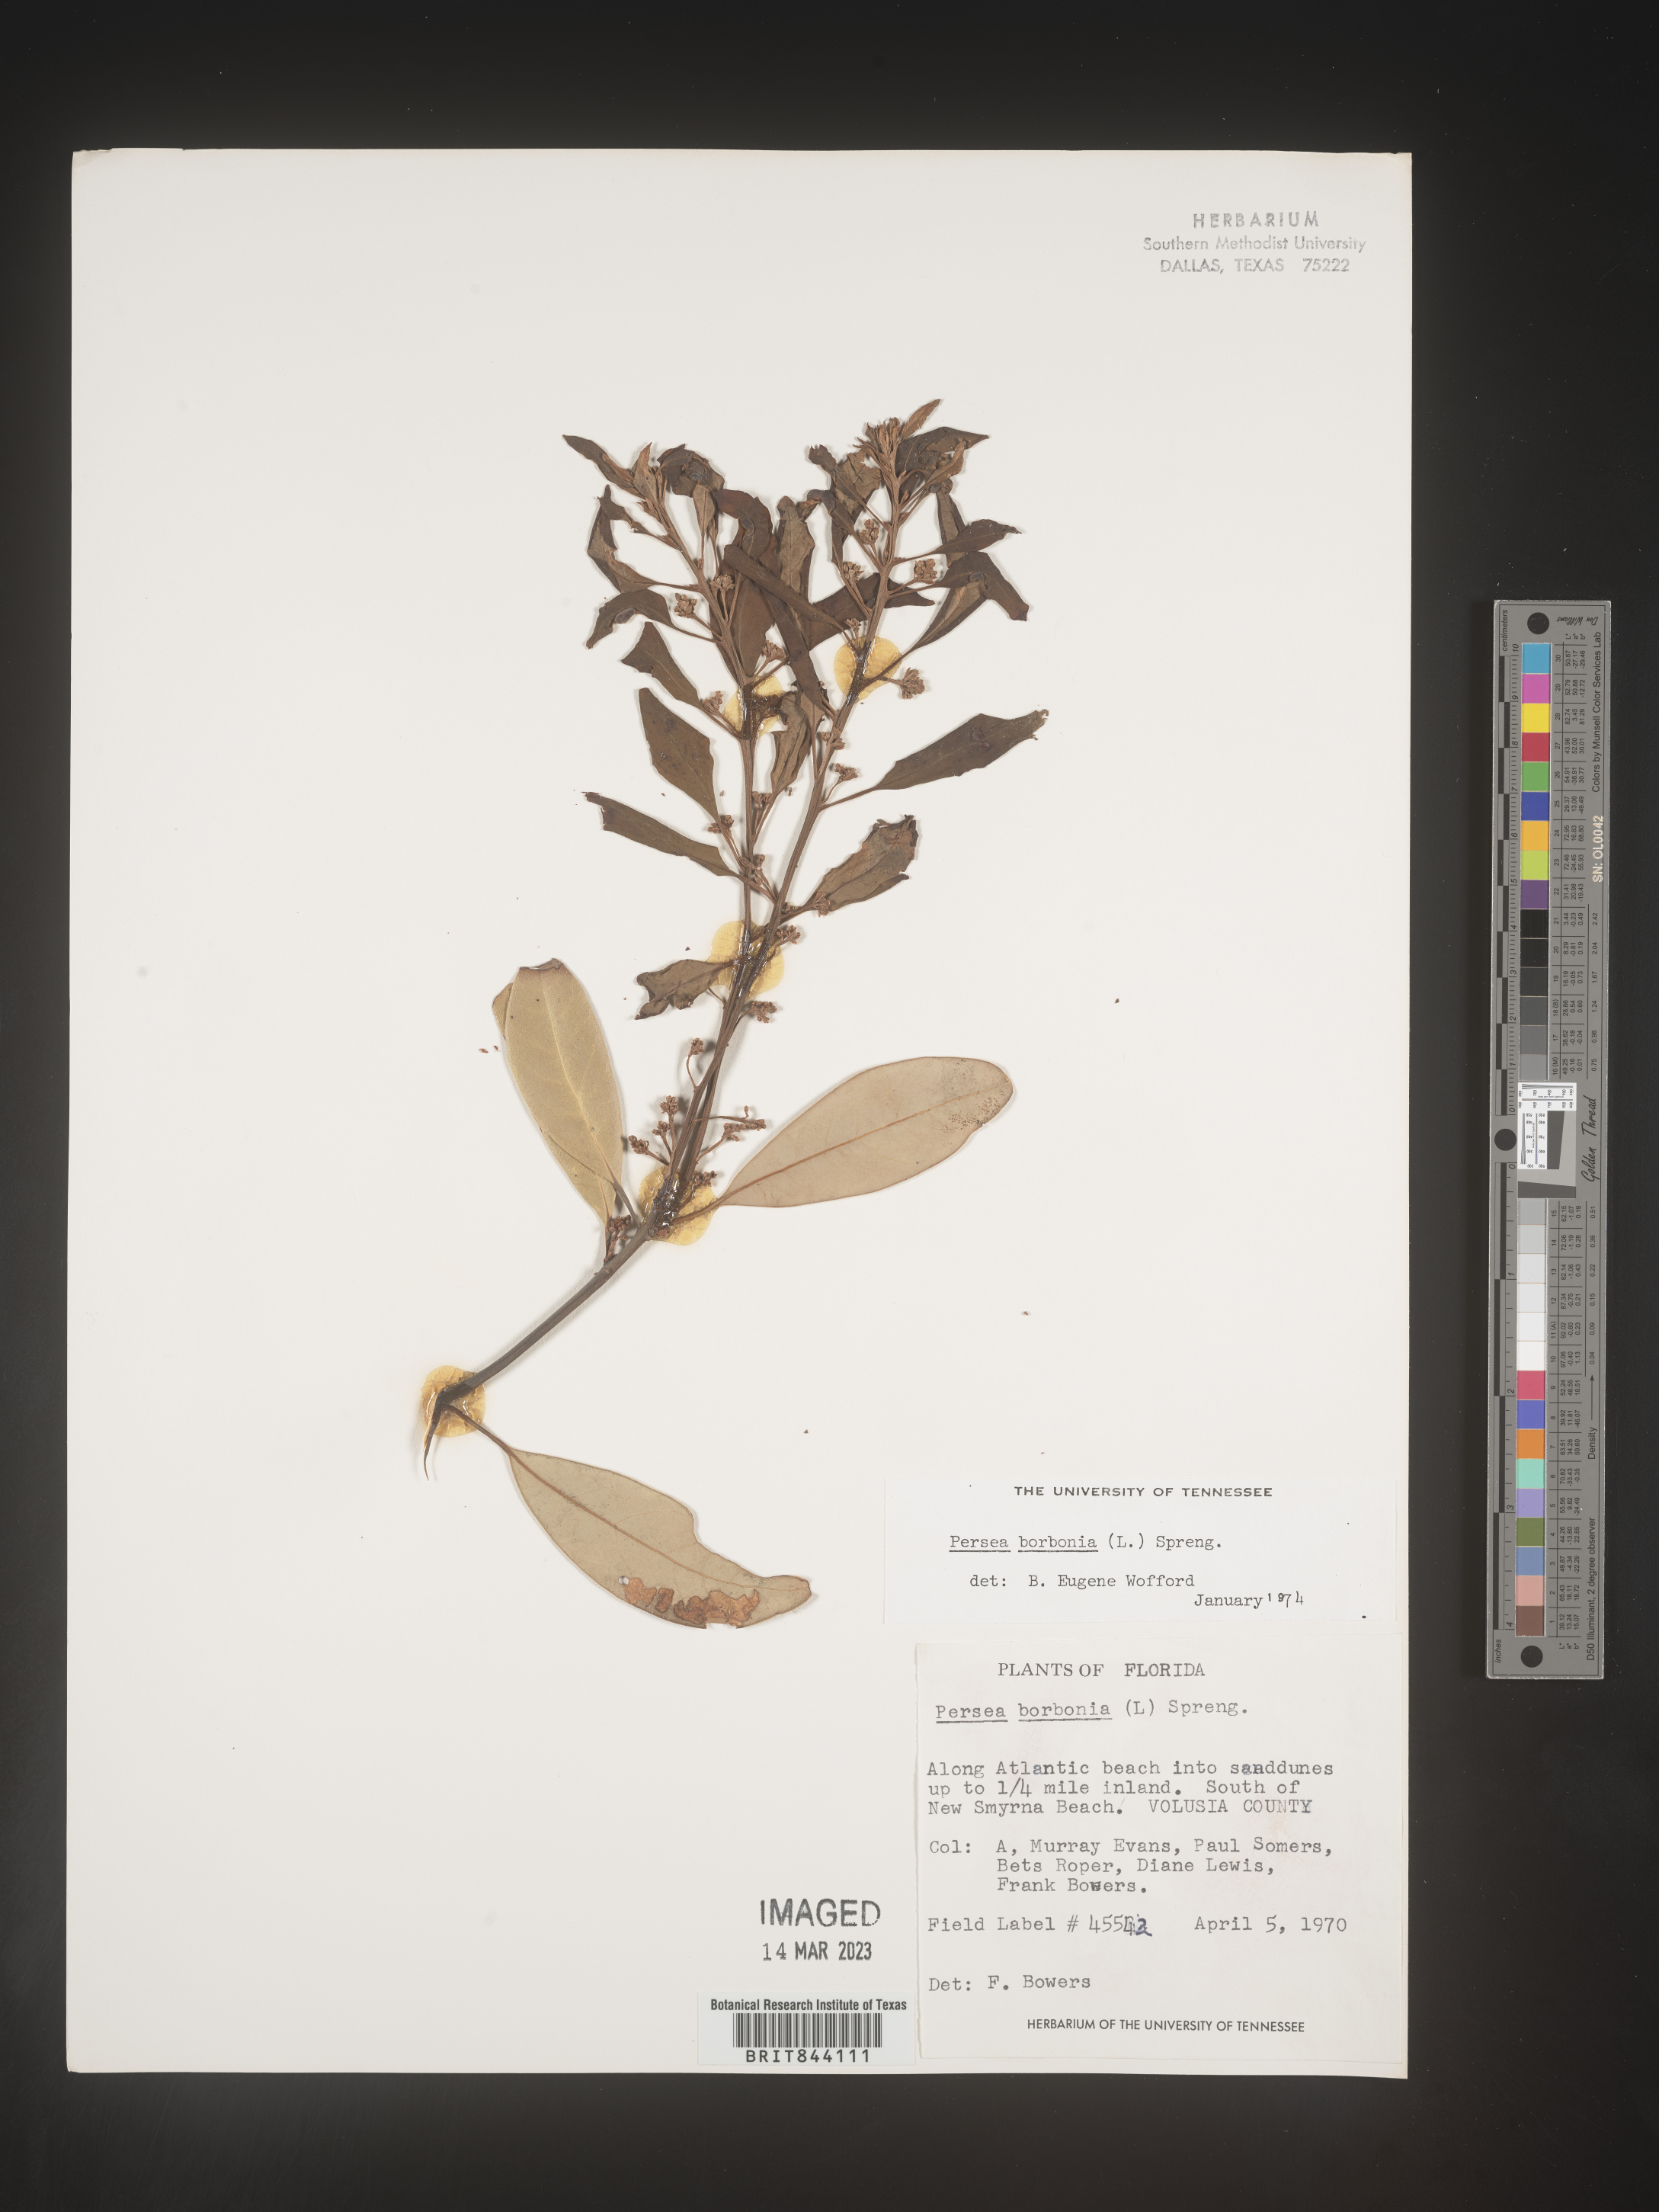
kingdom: Plantae
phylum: Tracheophyta
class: Magnoliopsida
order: Laurales
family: Lauraceae
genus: Persea
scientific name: Persea borbonia
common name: Redbay
